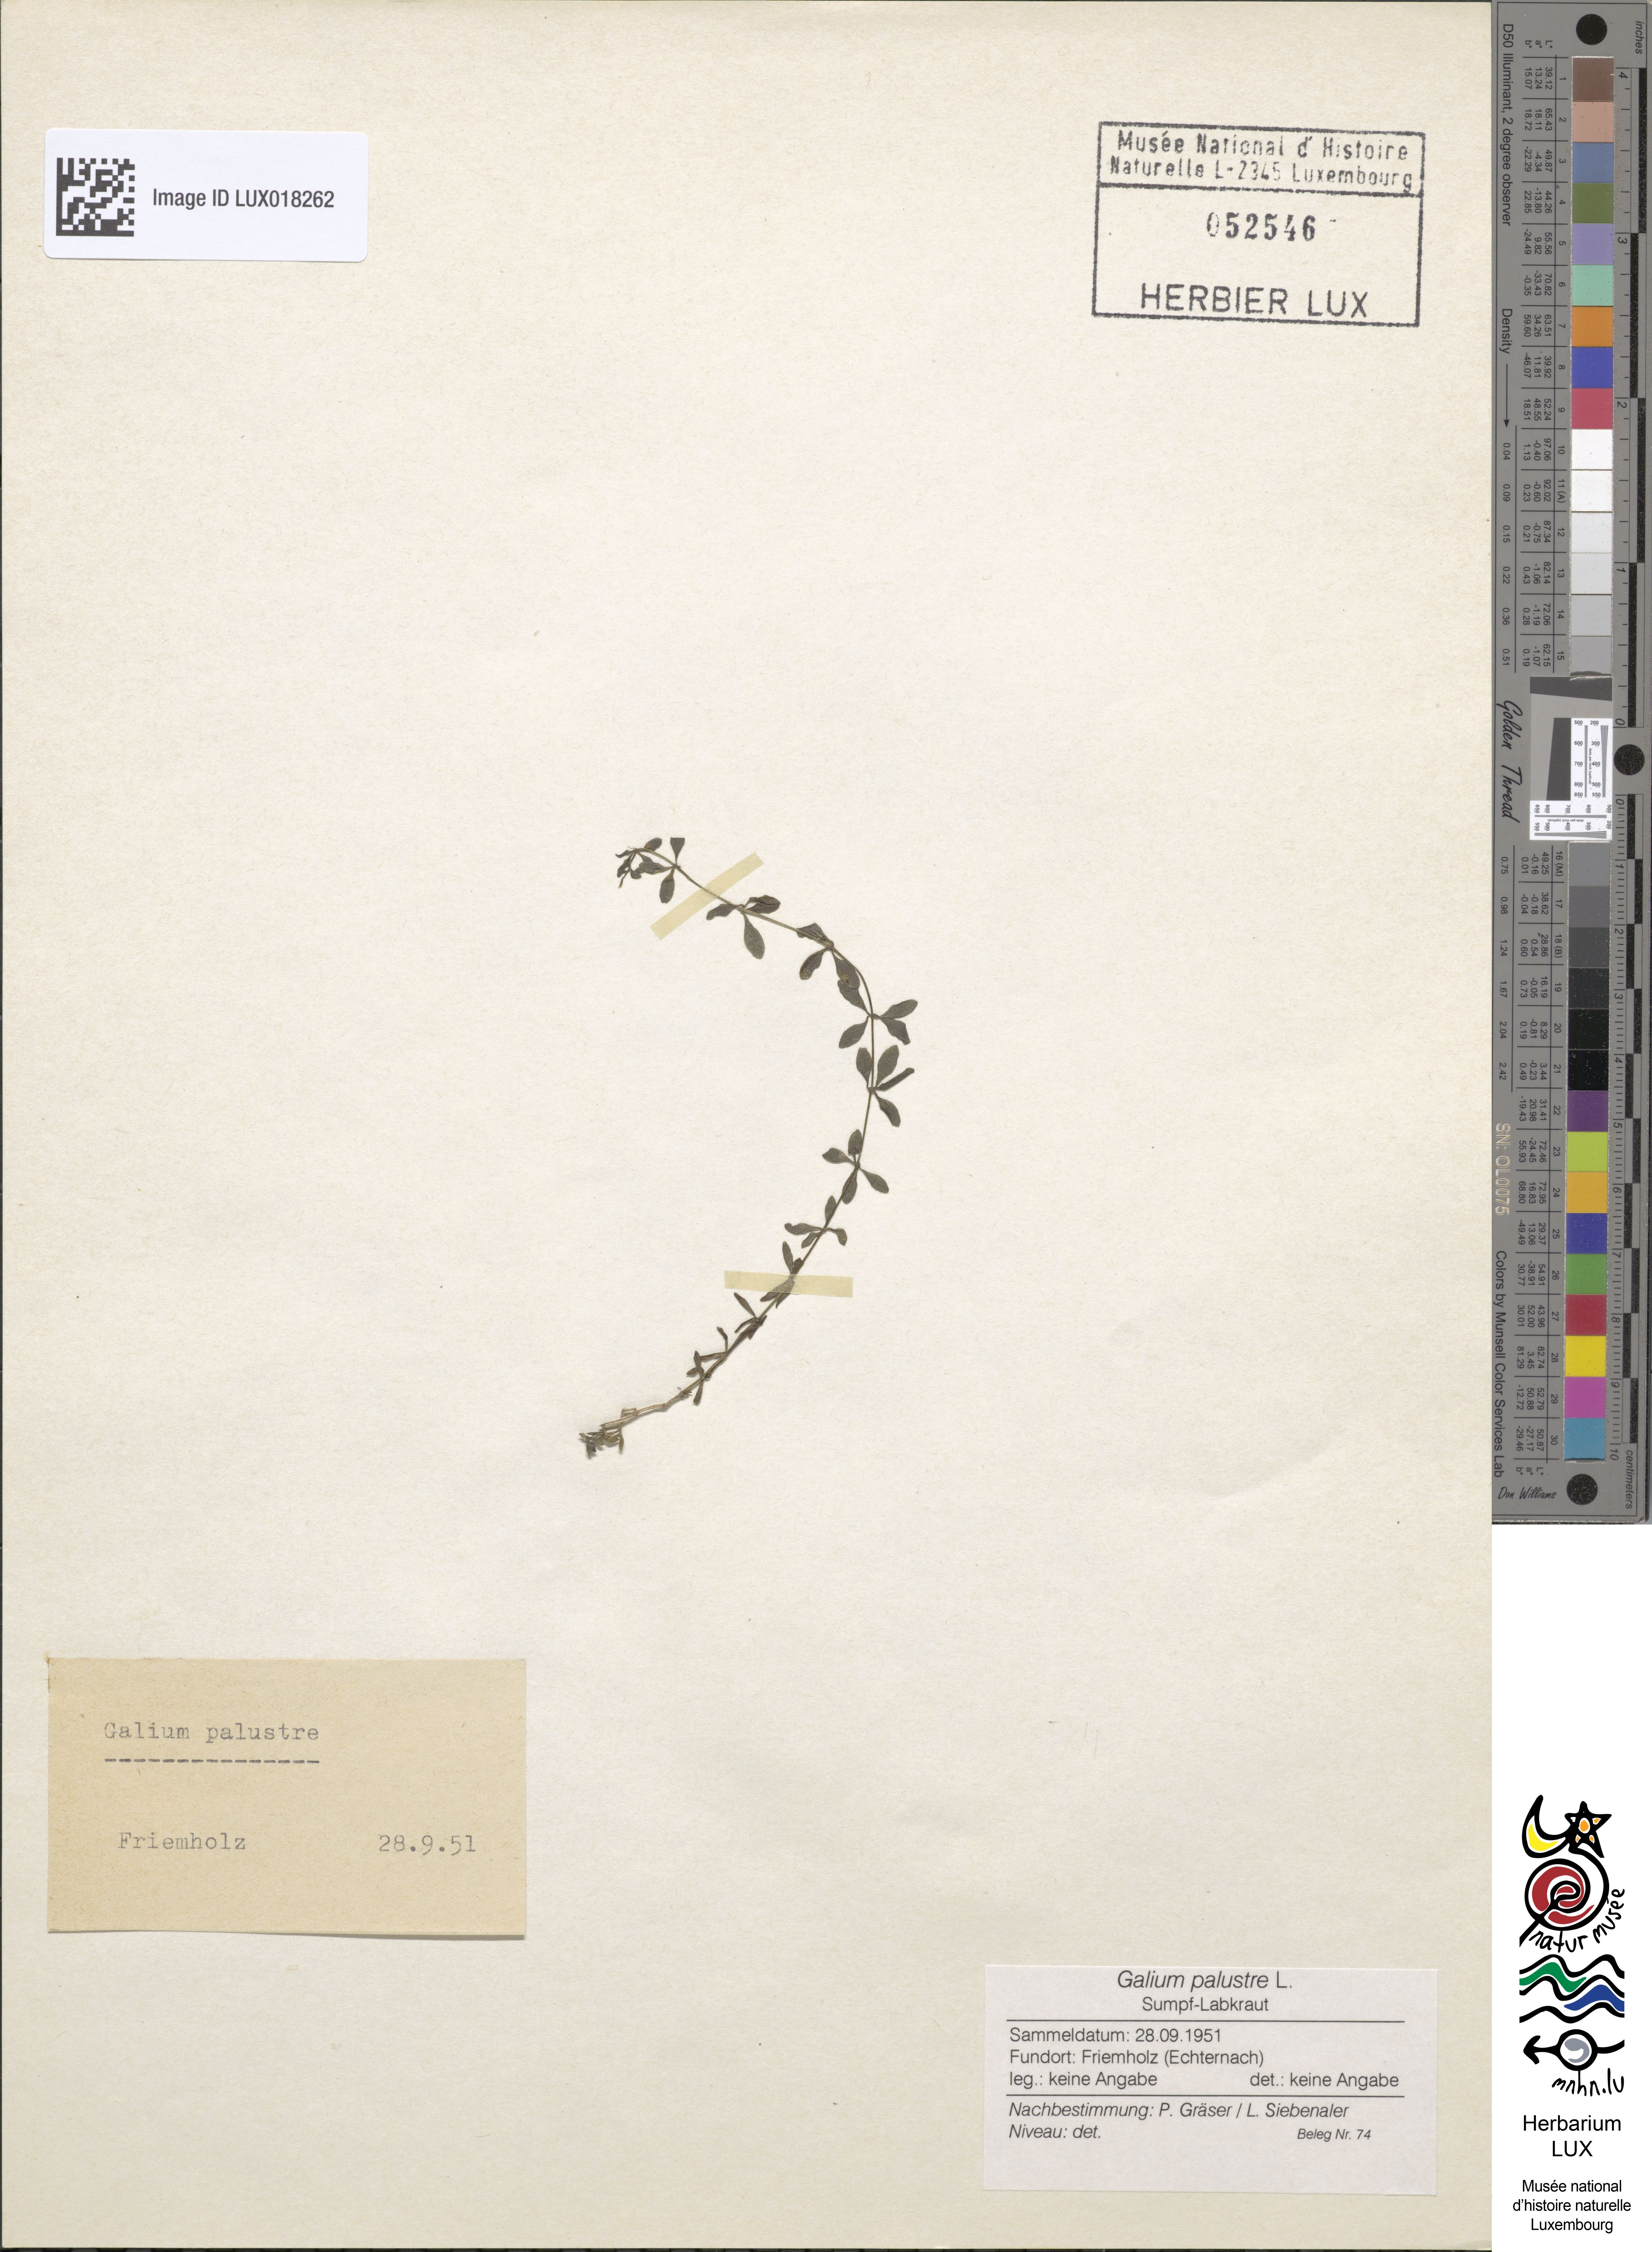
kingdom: Plantae
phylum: Tracheophyta
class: Magnoliopsida
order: Gentianales
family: Rubiaceae
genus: Galium
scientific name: Galium palustre
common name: Common marsh-bedstraw
